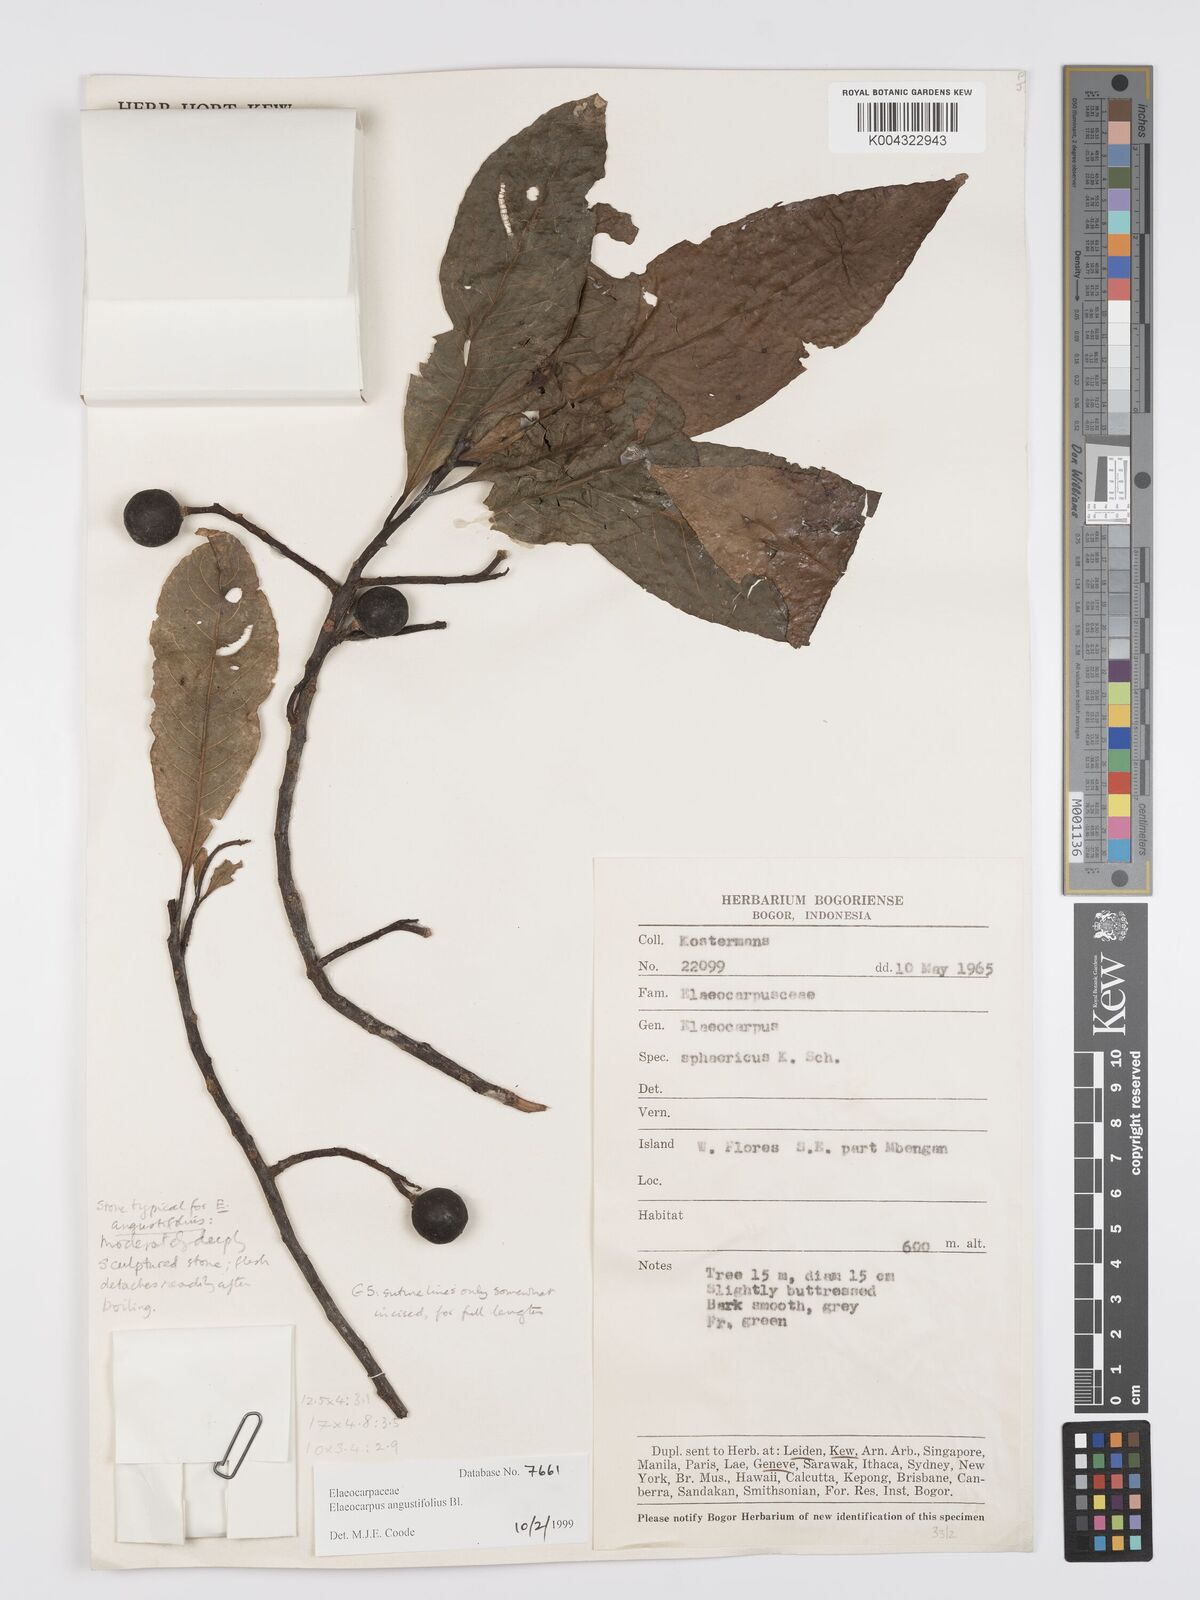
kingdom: Plantae
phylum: Tracheophyta
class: Magnoliopsida
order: Oxalidales
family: Elaeocarpaceae
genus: Elaeocarpus
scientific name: Elaeocarpus
